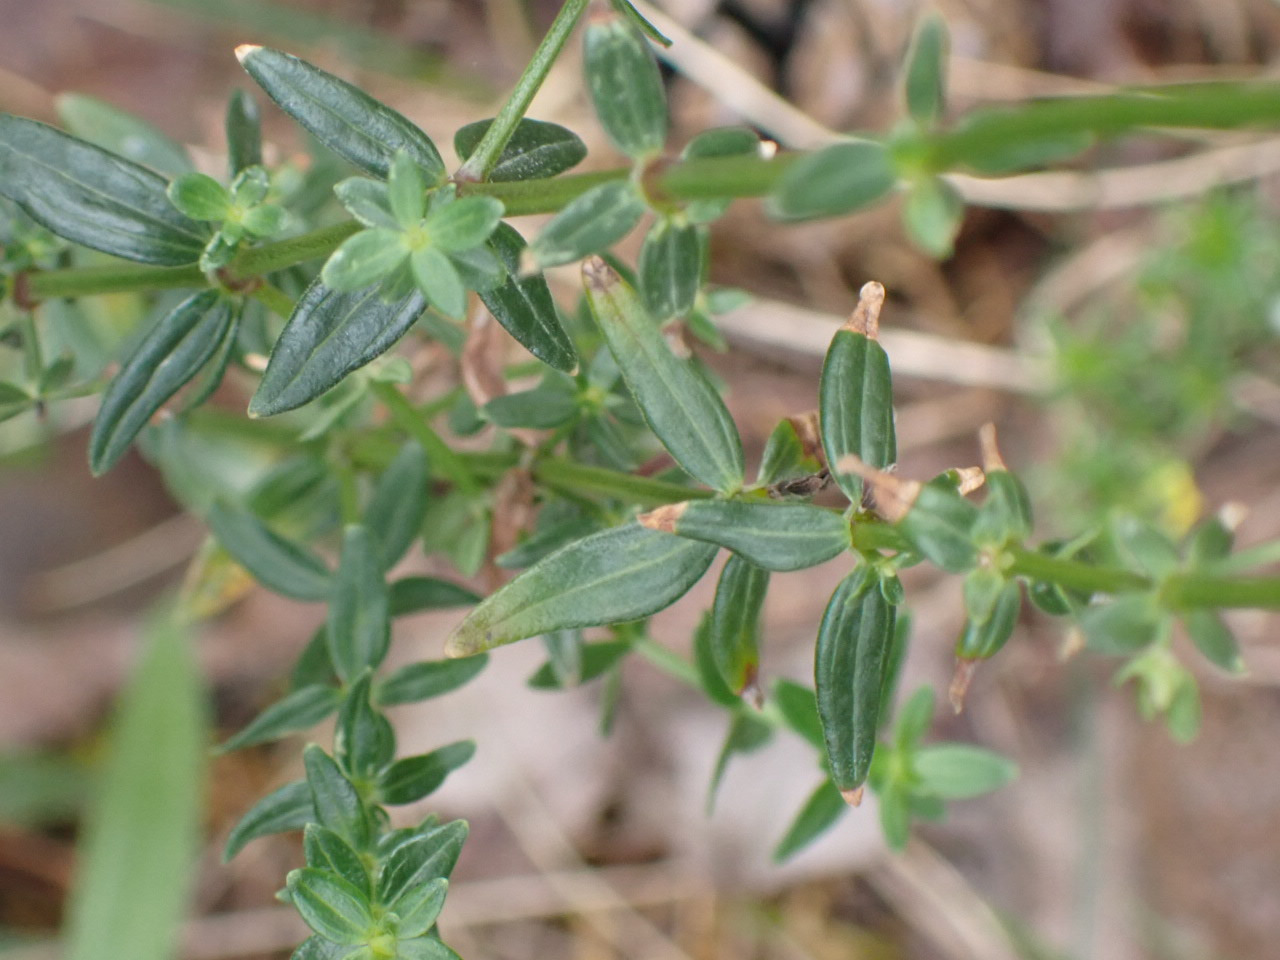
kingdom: Plantae
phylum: Tracheophyta
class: Magnoliopsida
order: Gentianales
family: Rubiaceae
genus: Galium
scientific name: Galium boreale
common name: Trenervet snerre
